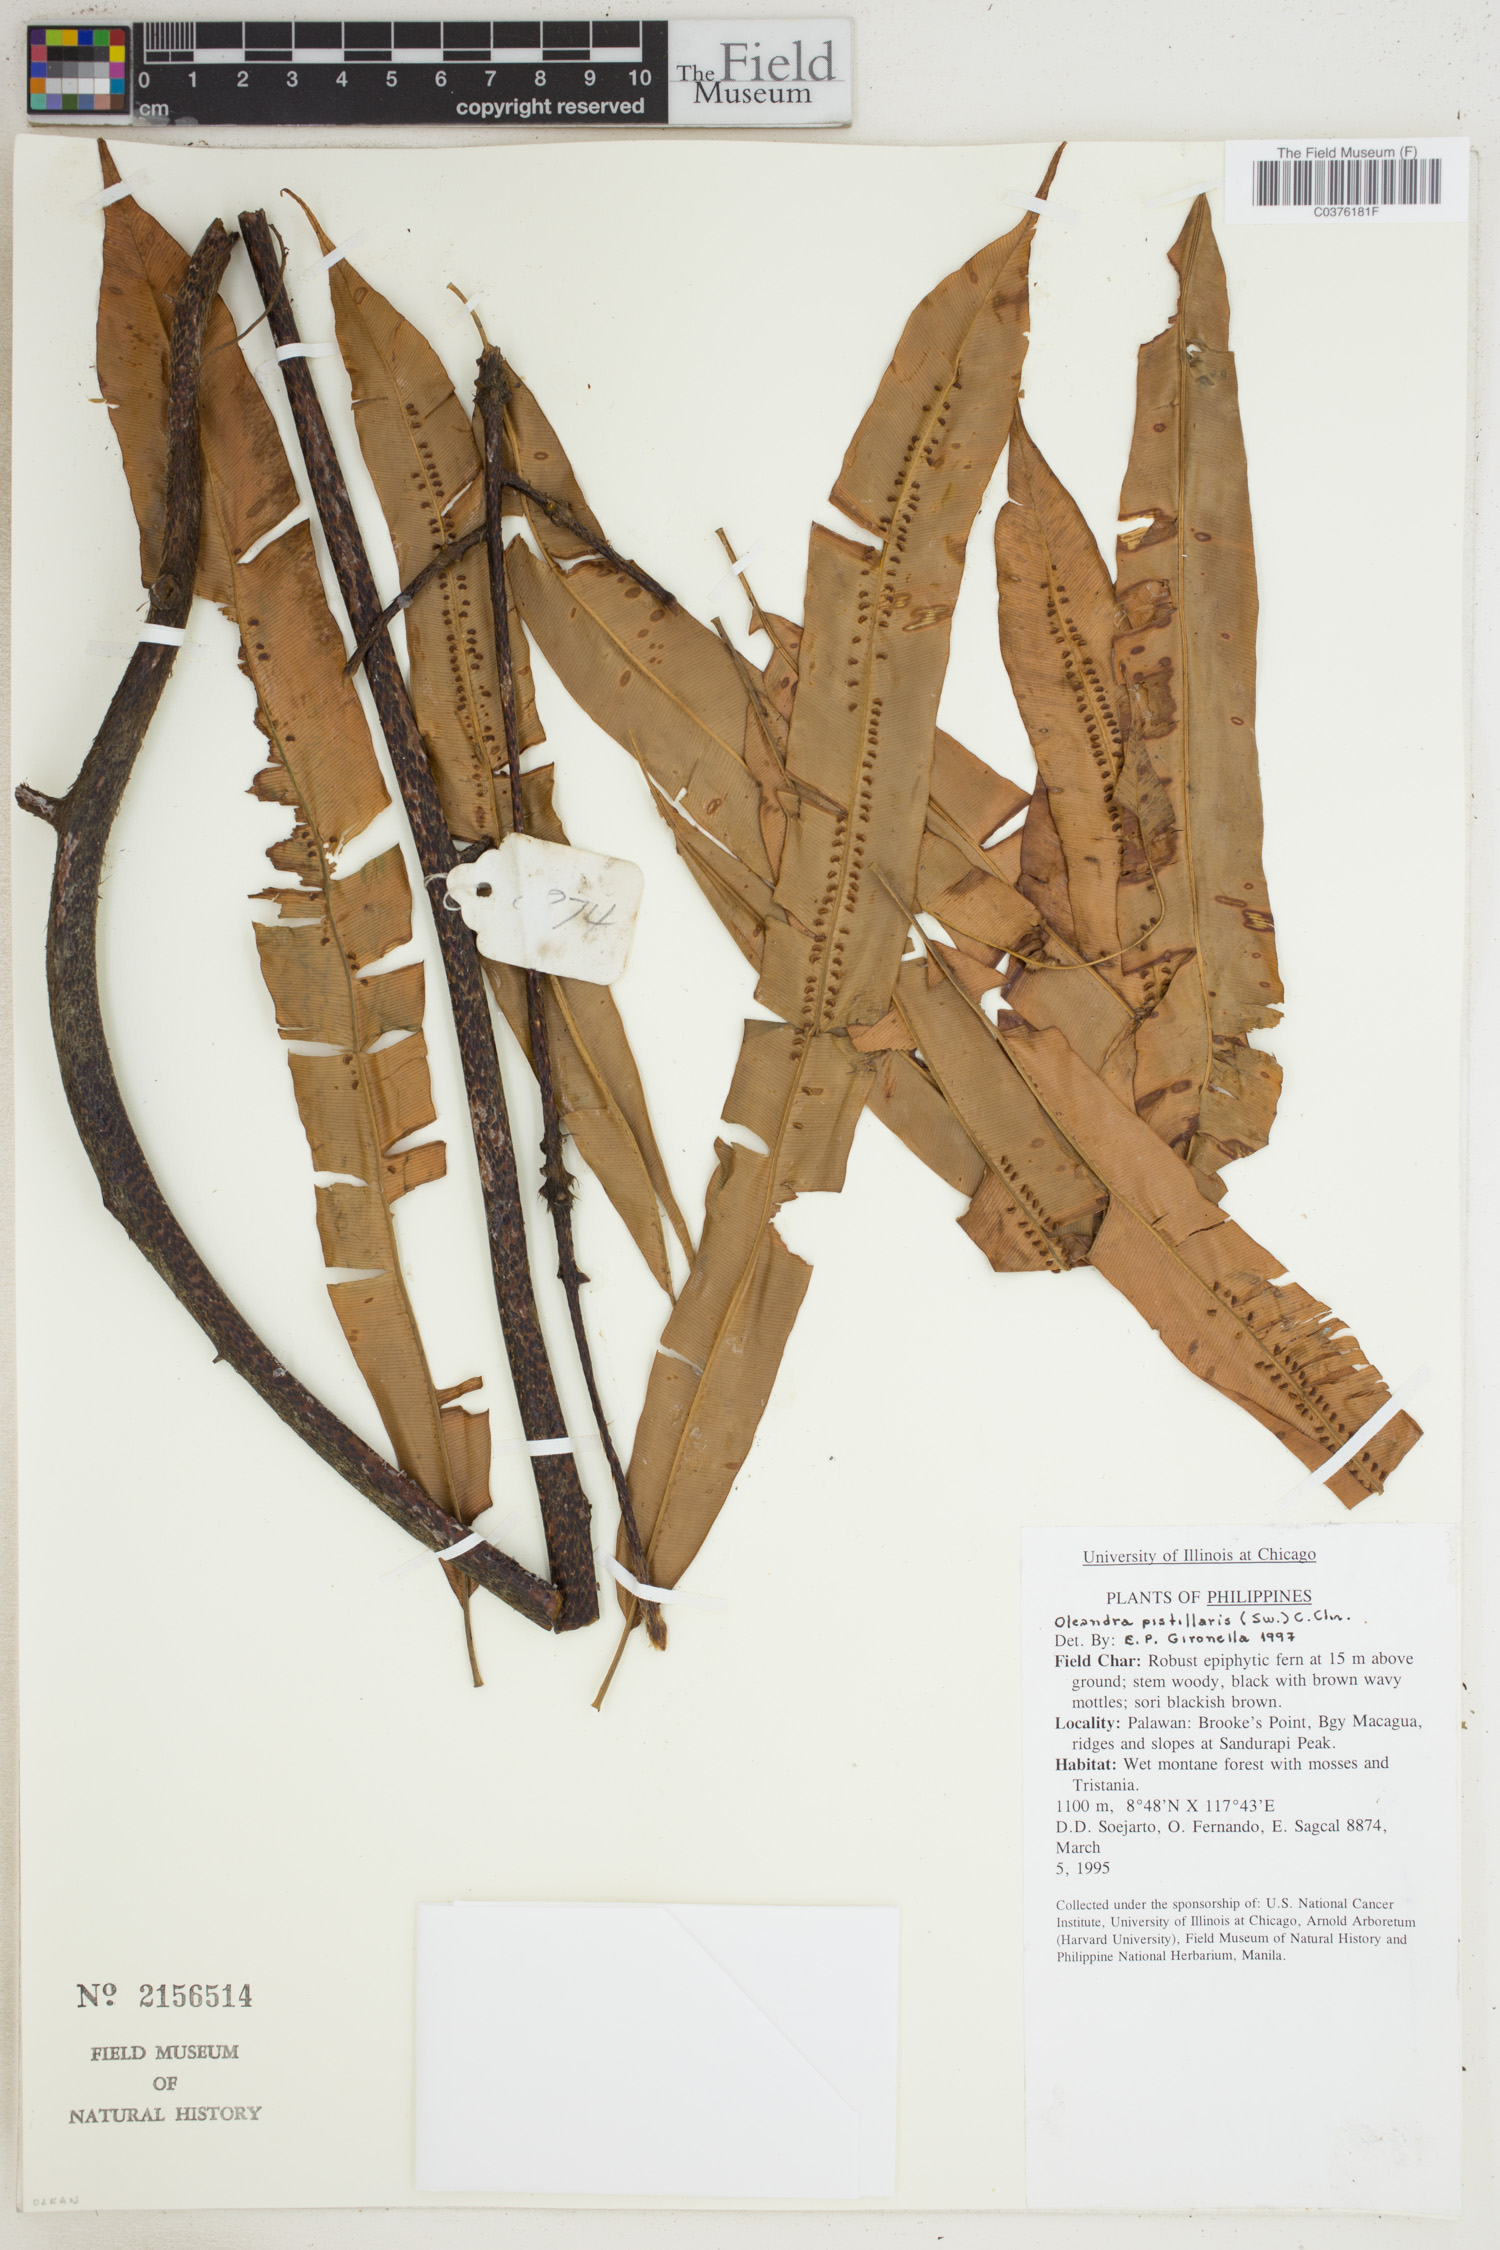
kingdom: Plantae
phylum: Tracheophyta
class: Polypodiopsida
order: Polypodiales
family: Oleandraceae
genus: Oleandra
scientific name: Oleandra pistillaris
